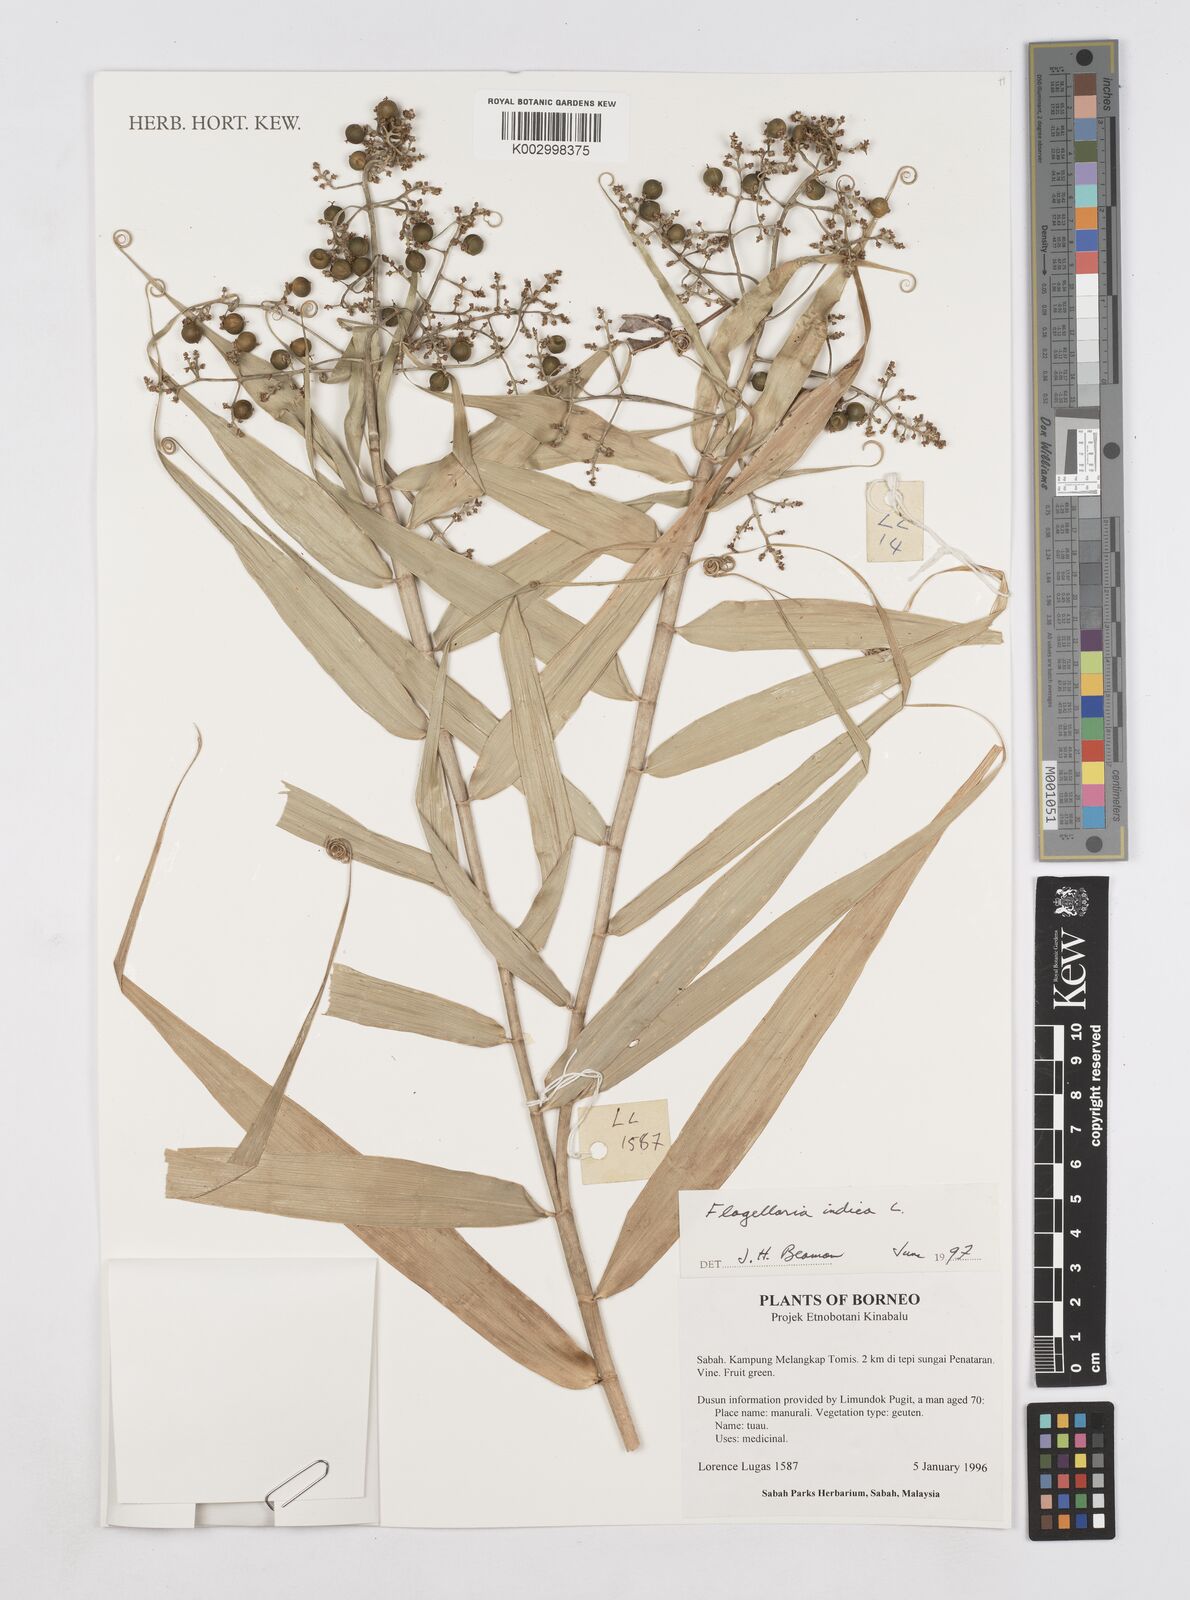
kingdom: Plantae
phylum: Tracheophyta
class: Liliopsida
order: Poales
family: Flagellariaceae
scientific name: Flagellariaceae
